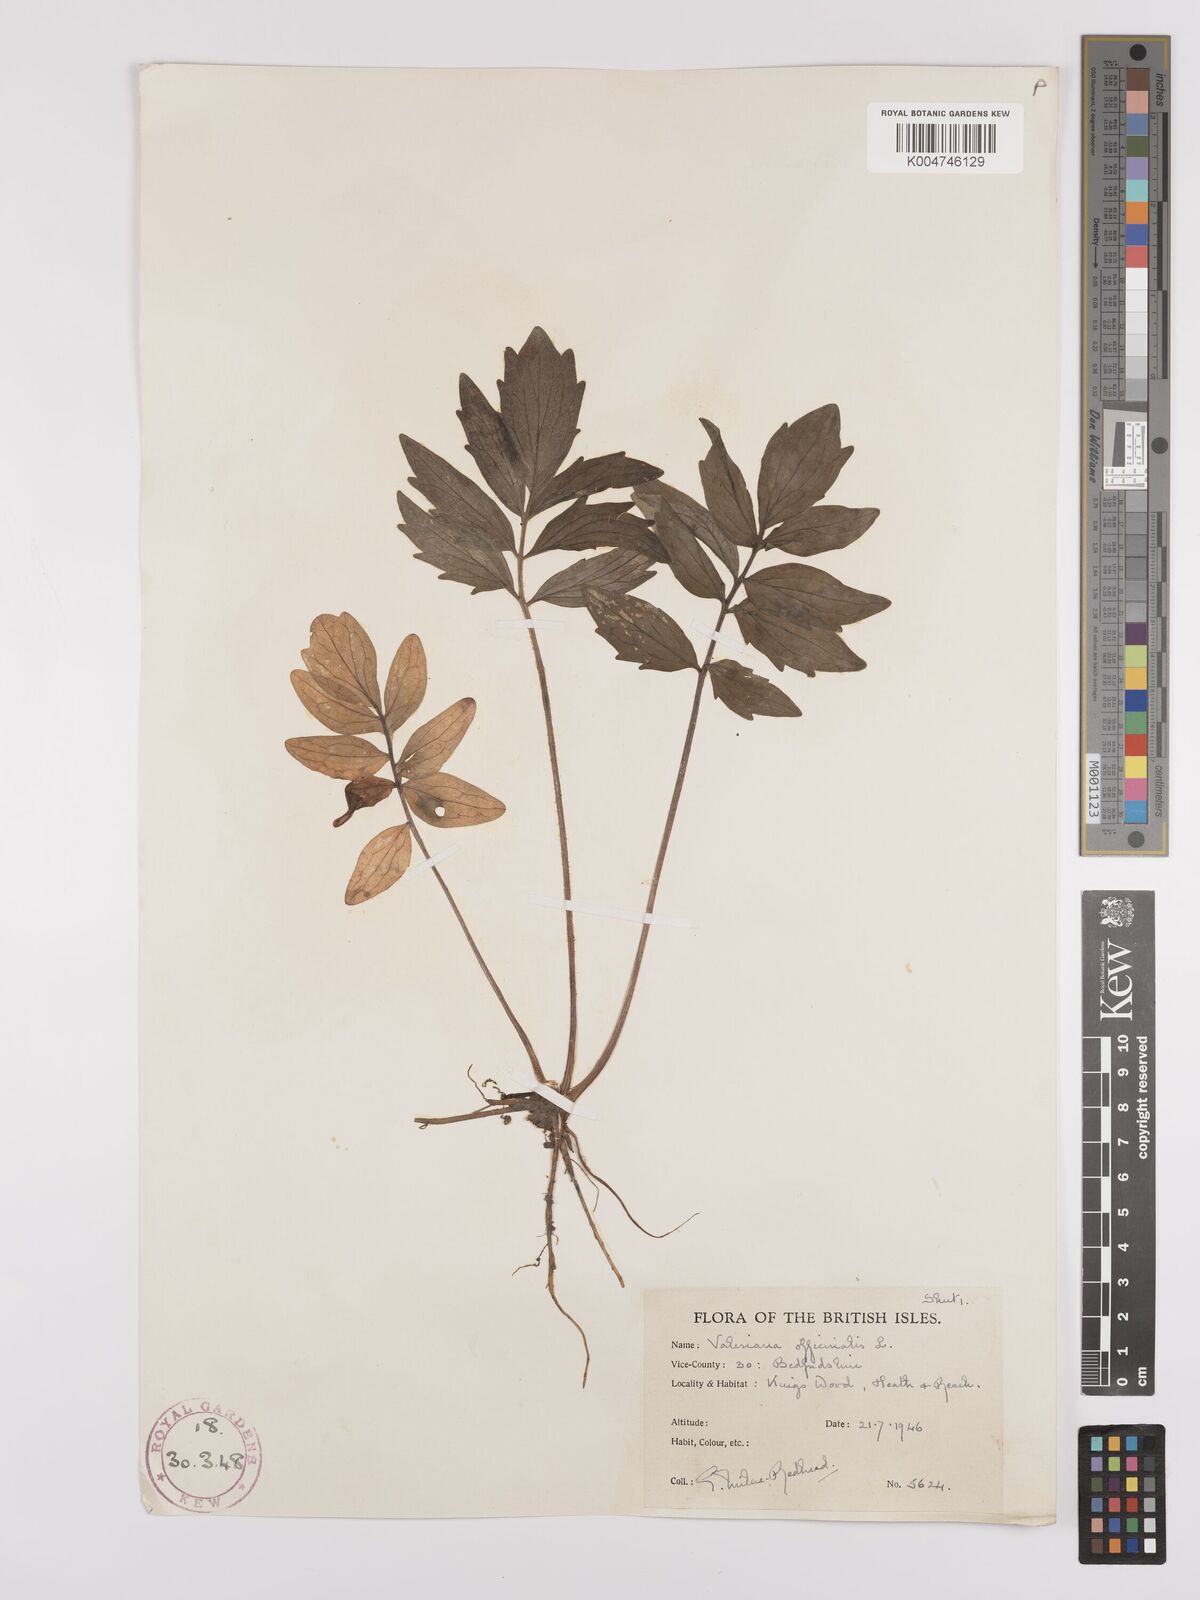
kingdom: Plantae
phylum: Tracheophyta
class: Magnoliopsida
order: Dipsacales
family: Caprifoliaceae
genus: Valeriana
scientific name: Valeriana excelsa
